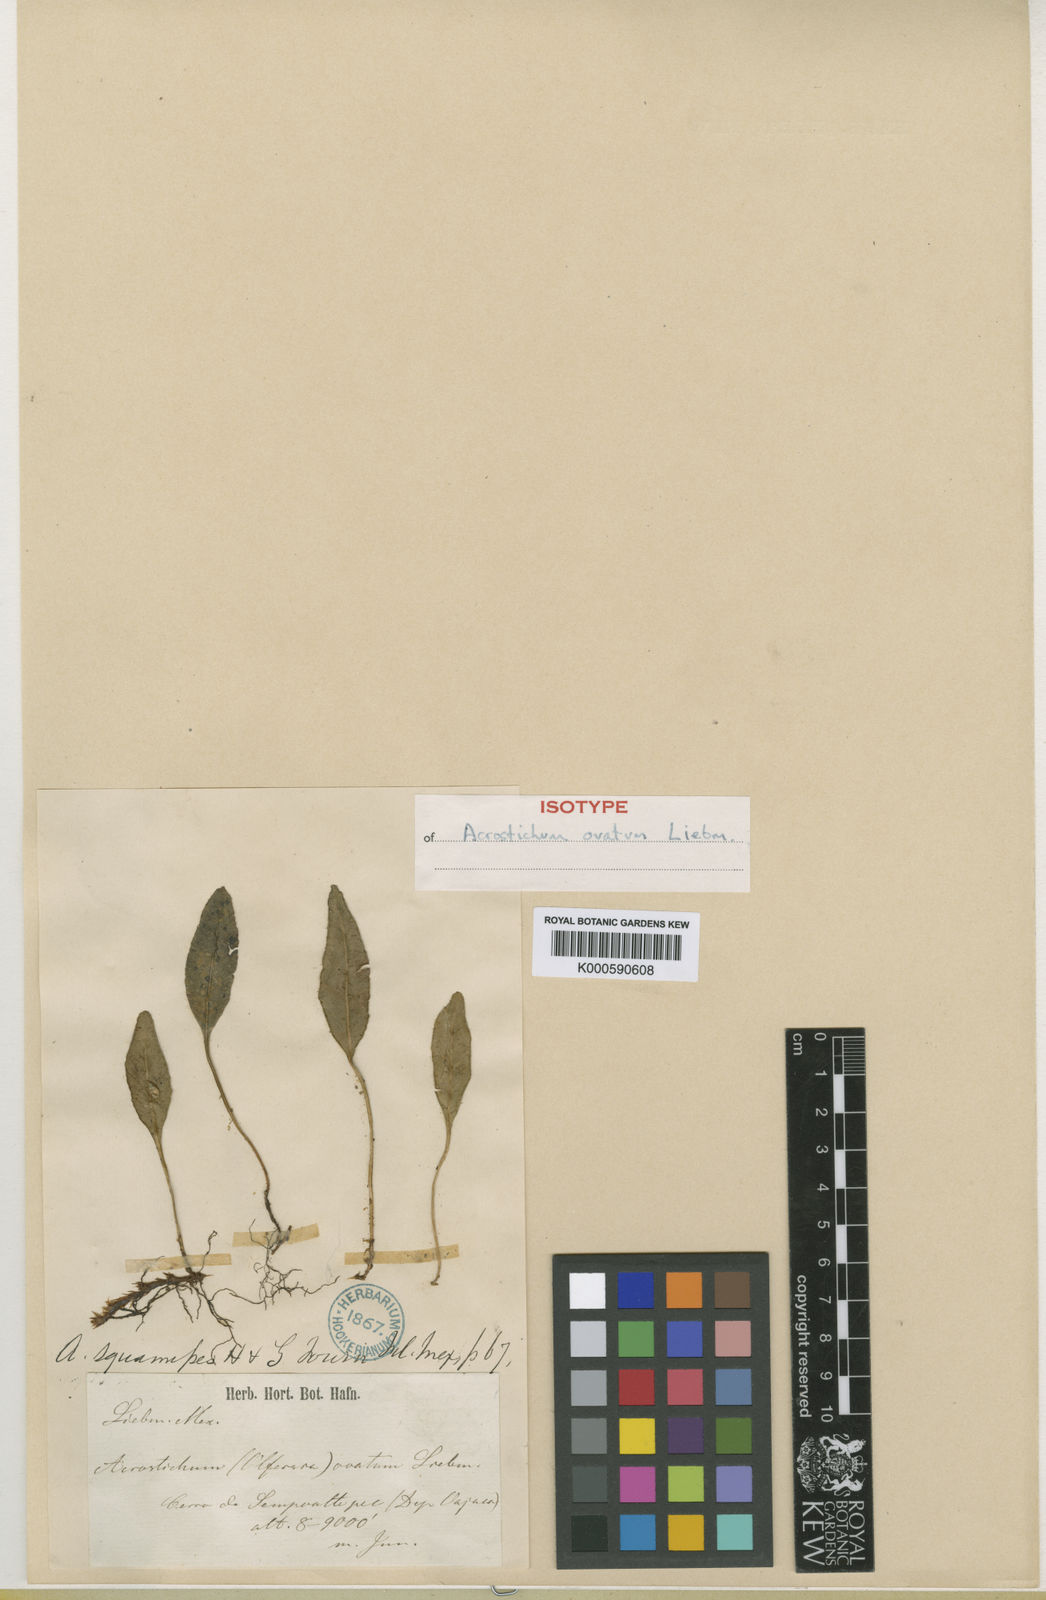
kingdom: Plantae
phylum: Tracheophyta
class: Polypodiopsida
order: Polypodiales
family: Dryopteridaceae
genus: Elaphoglossum
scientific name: Elaphoglossum squamipes
